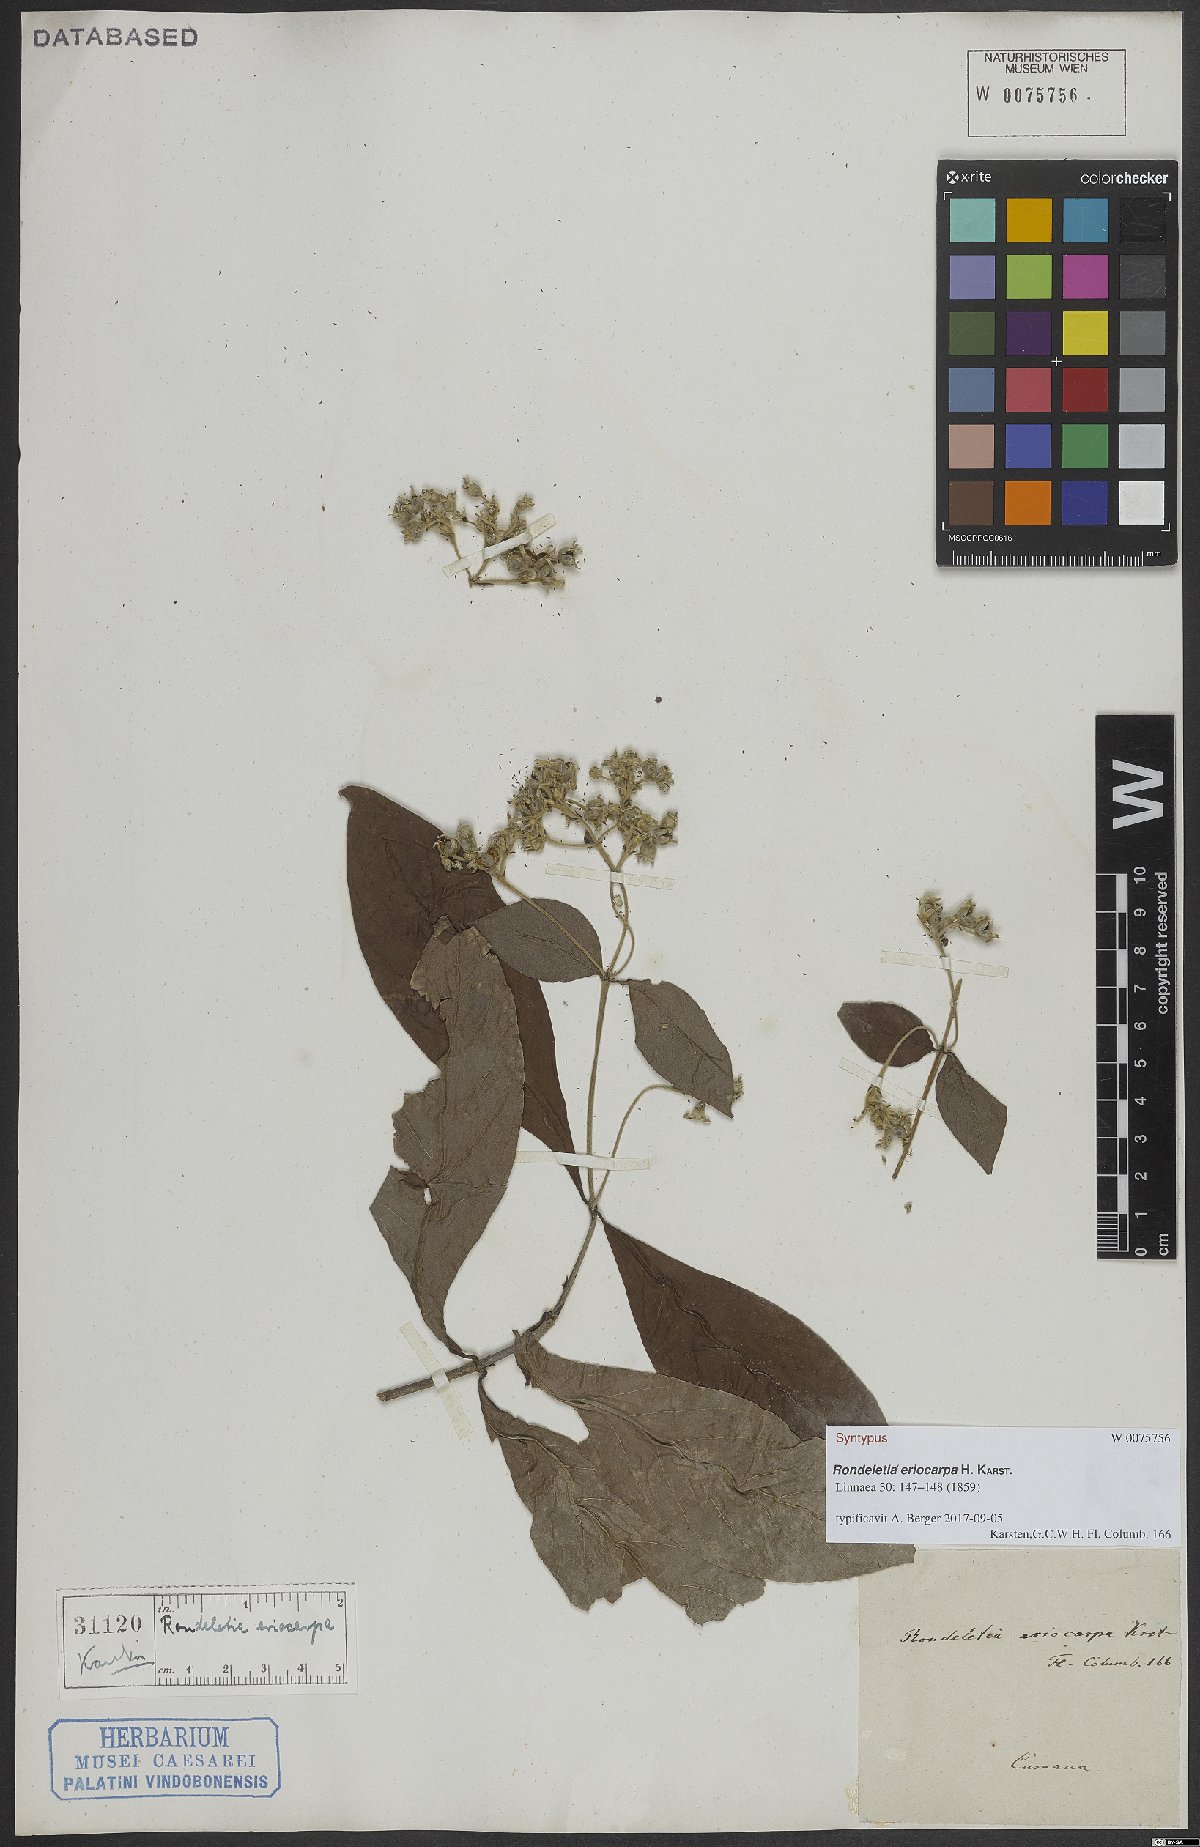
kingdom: Plantae
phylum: Tracheophyta
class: Magnoliopsida
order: Gentianales
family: Rubiaceae
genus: Rondeletia
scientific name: Rondeletia eriocarpa
